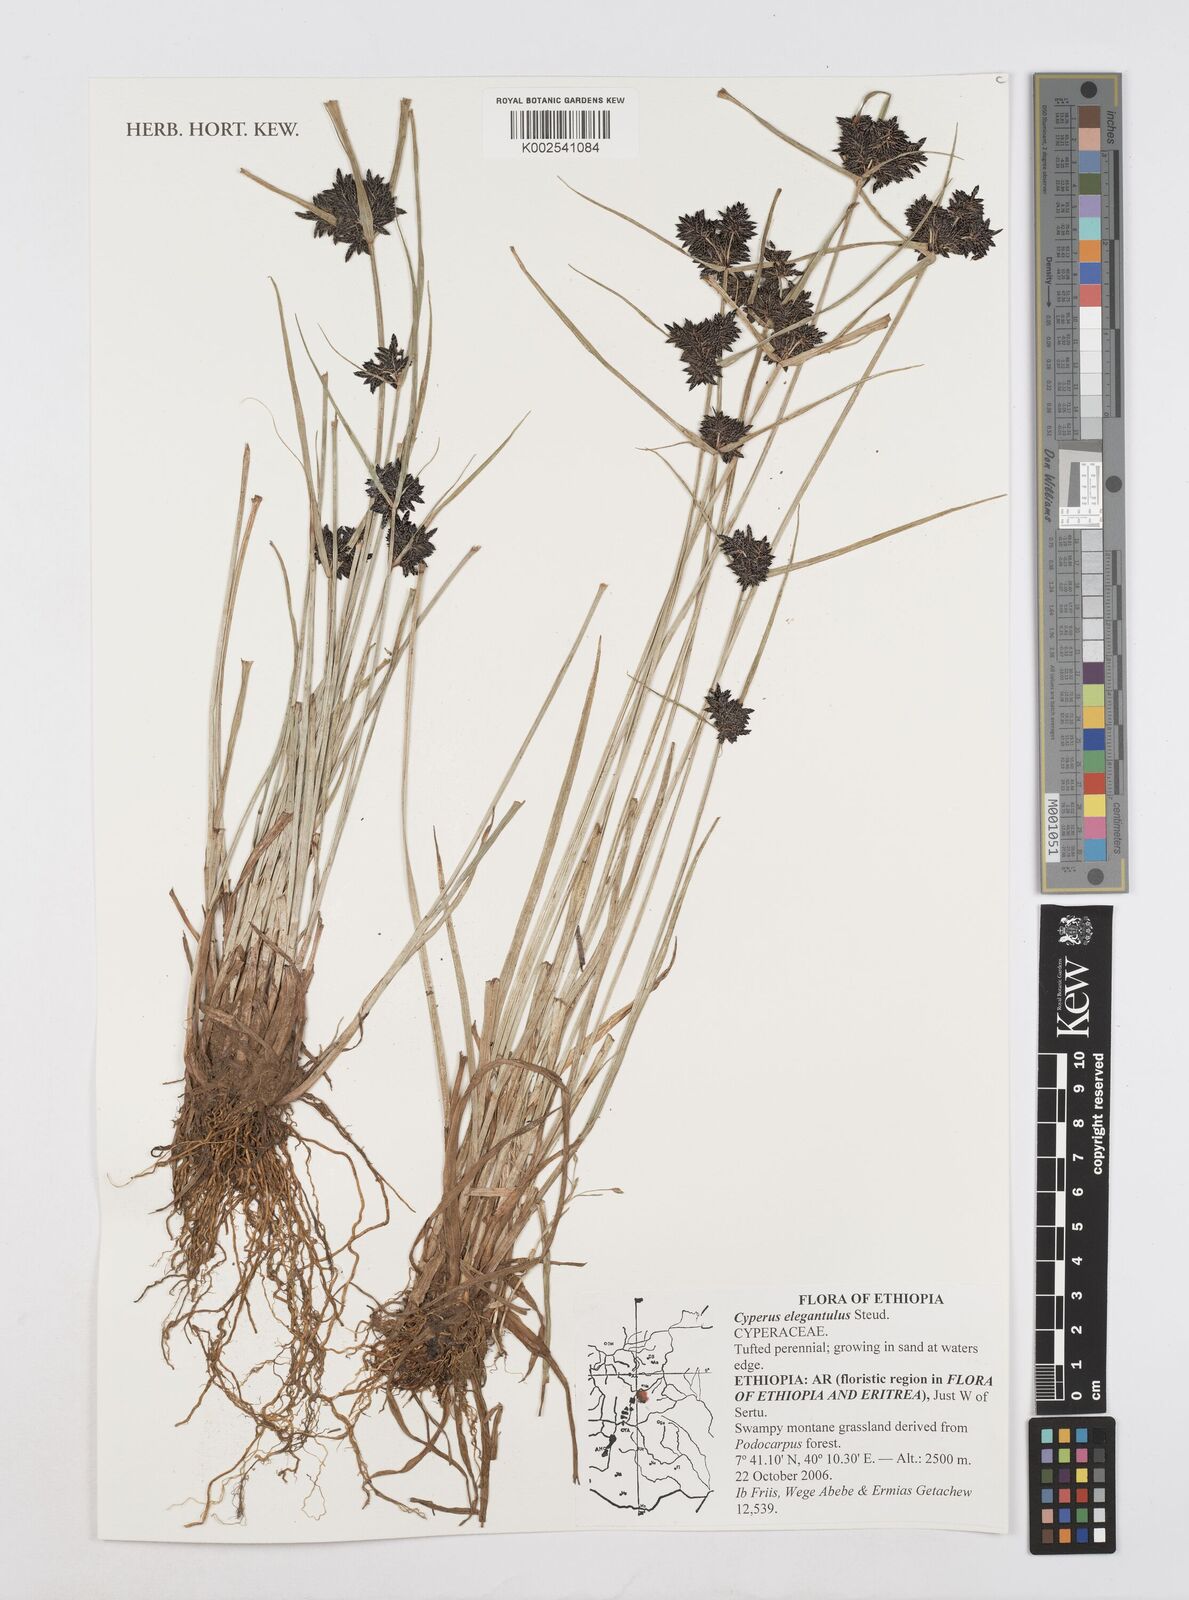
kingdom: Plantae
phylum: Tracheophyta
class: Liliopsida
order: Poales
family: Cyperaceae
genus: Cyperus
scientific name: Cyperus elegantulus
